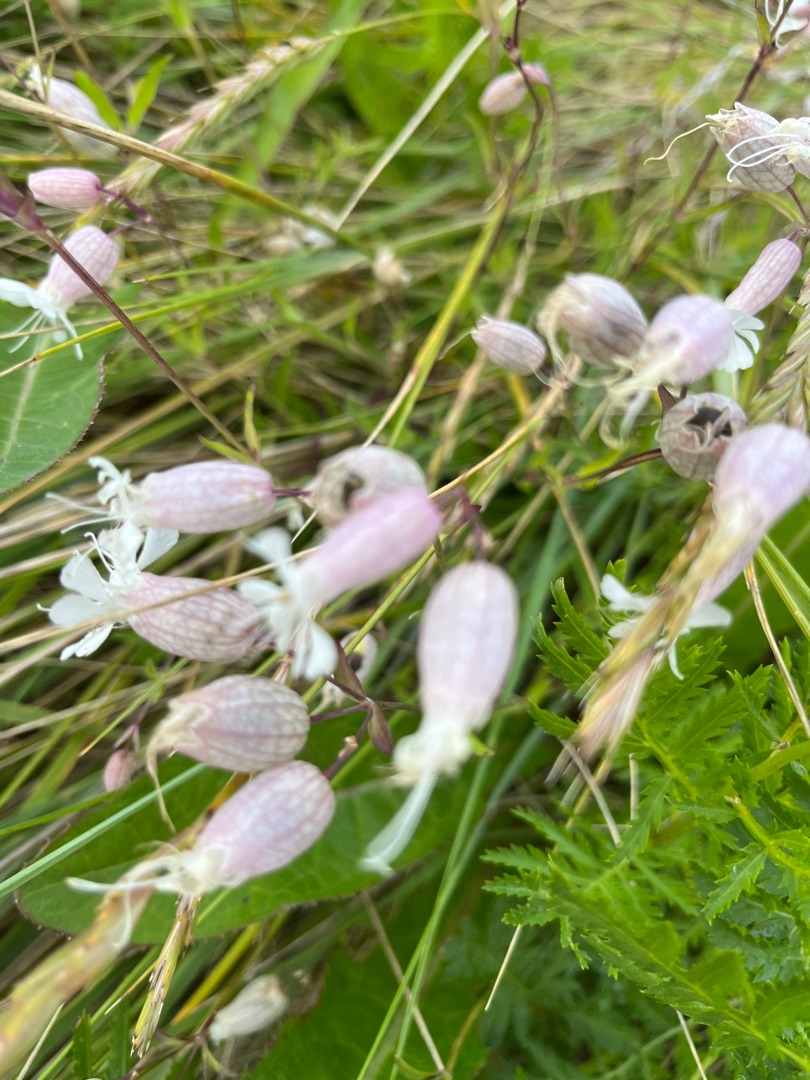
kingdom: Plantae
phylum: Tracheophyta
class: Magnoliopsida
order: Caryophyllales
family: Caryophyllaceae
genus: Silene
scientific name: Silene vulgaris
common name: Blæresmælde
